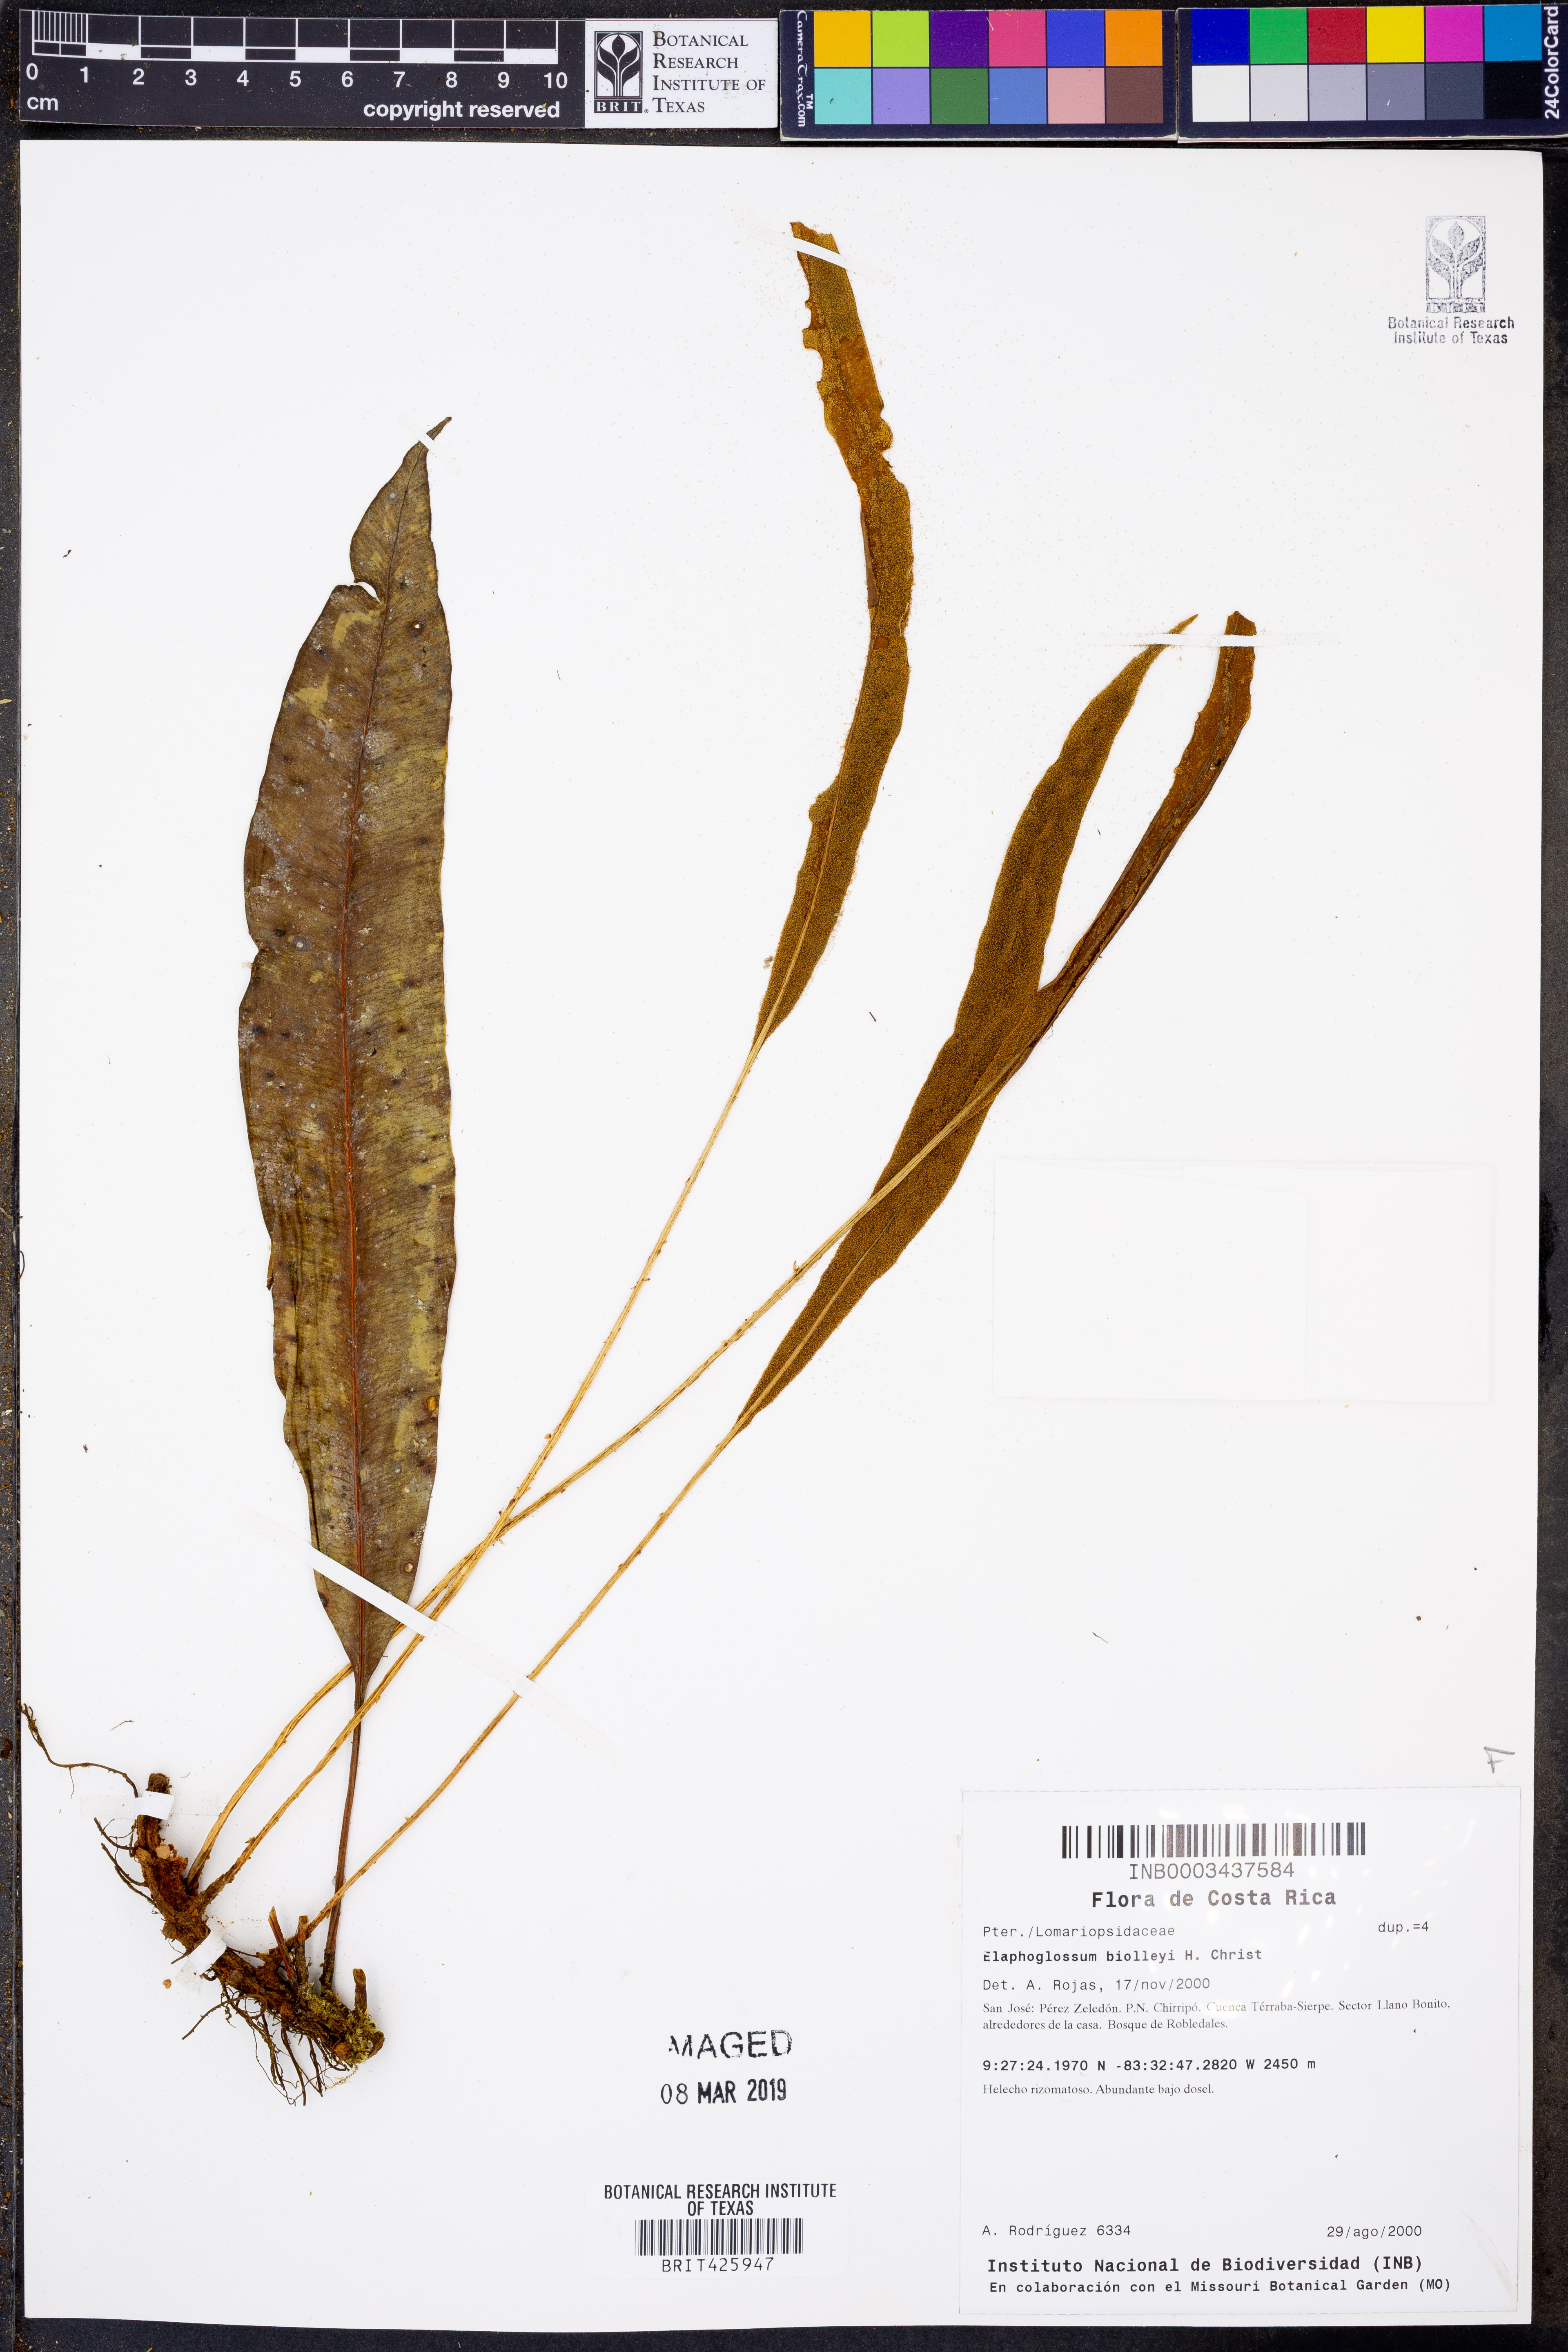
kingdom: Plantae
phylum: Tracheophyta
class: Polypodiopsida
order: Polypodiales
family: Dryopteridaceae
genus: Elaphoglossum
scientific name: Elaphoglossum biolleyi
